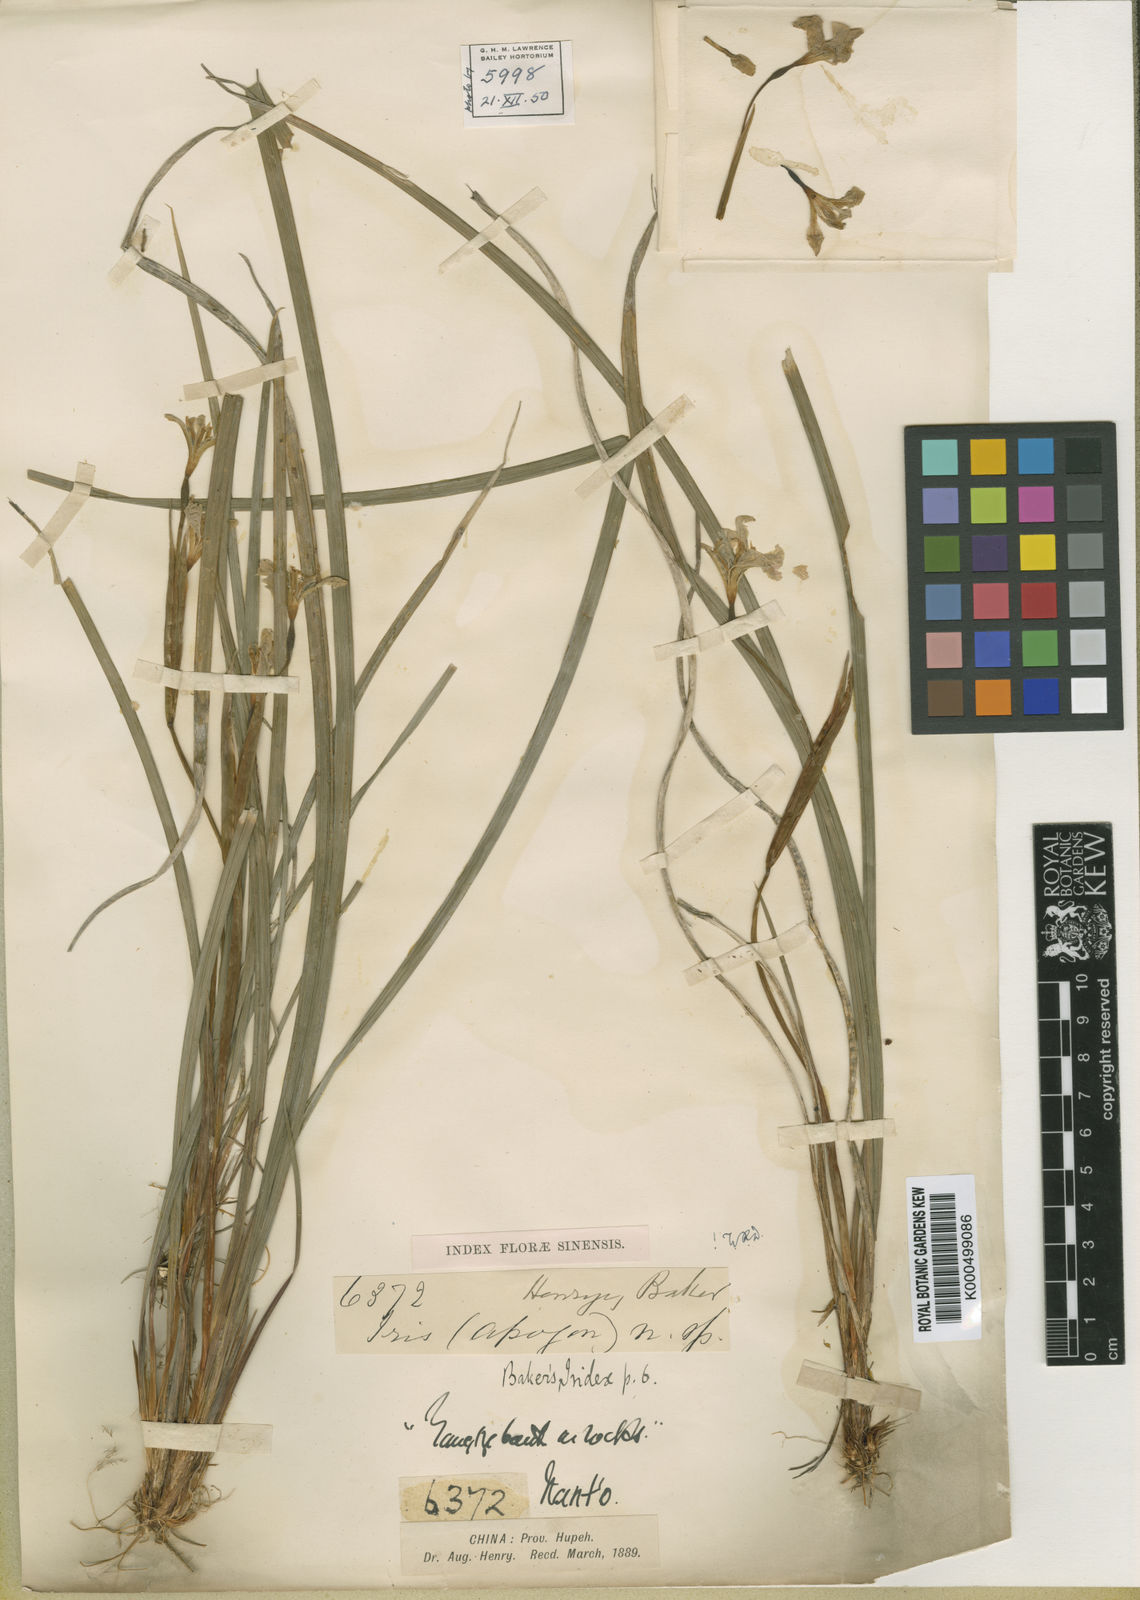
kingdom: Plantae
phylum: Tracheophyta
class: Liliopsida
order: Asparagales
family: Iridaceae
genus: Iris
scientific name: Iris henryi
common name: Long-pedicel iris
